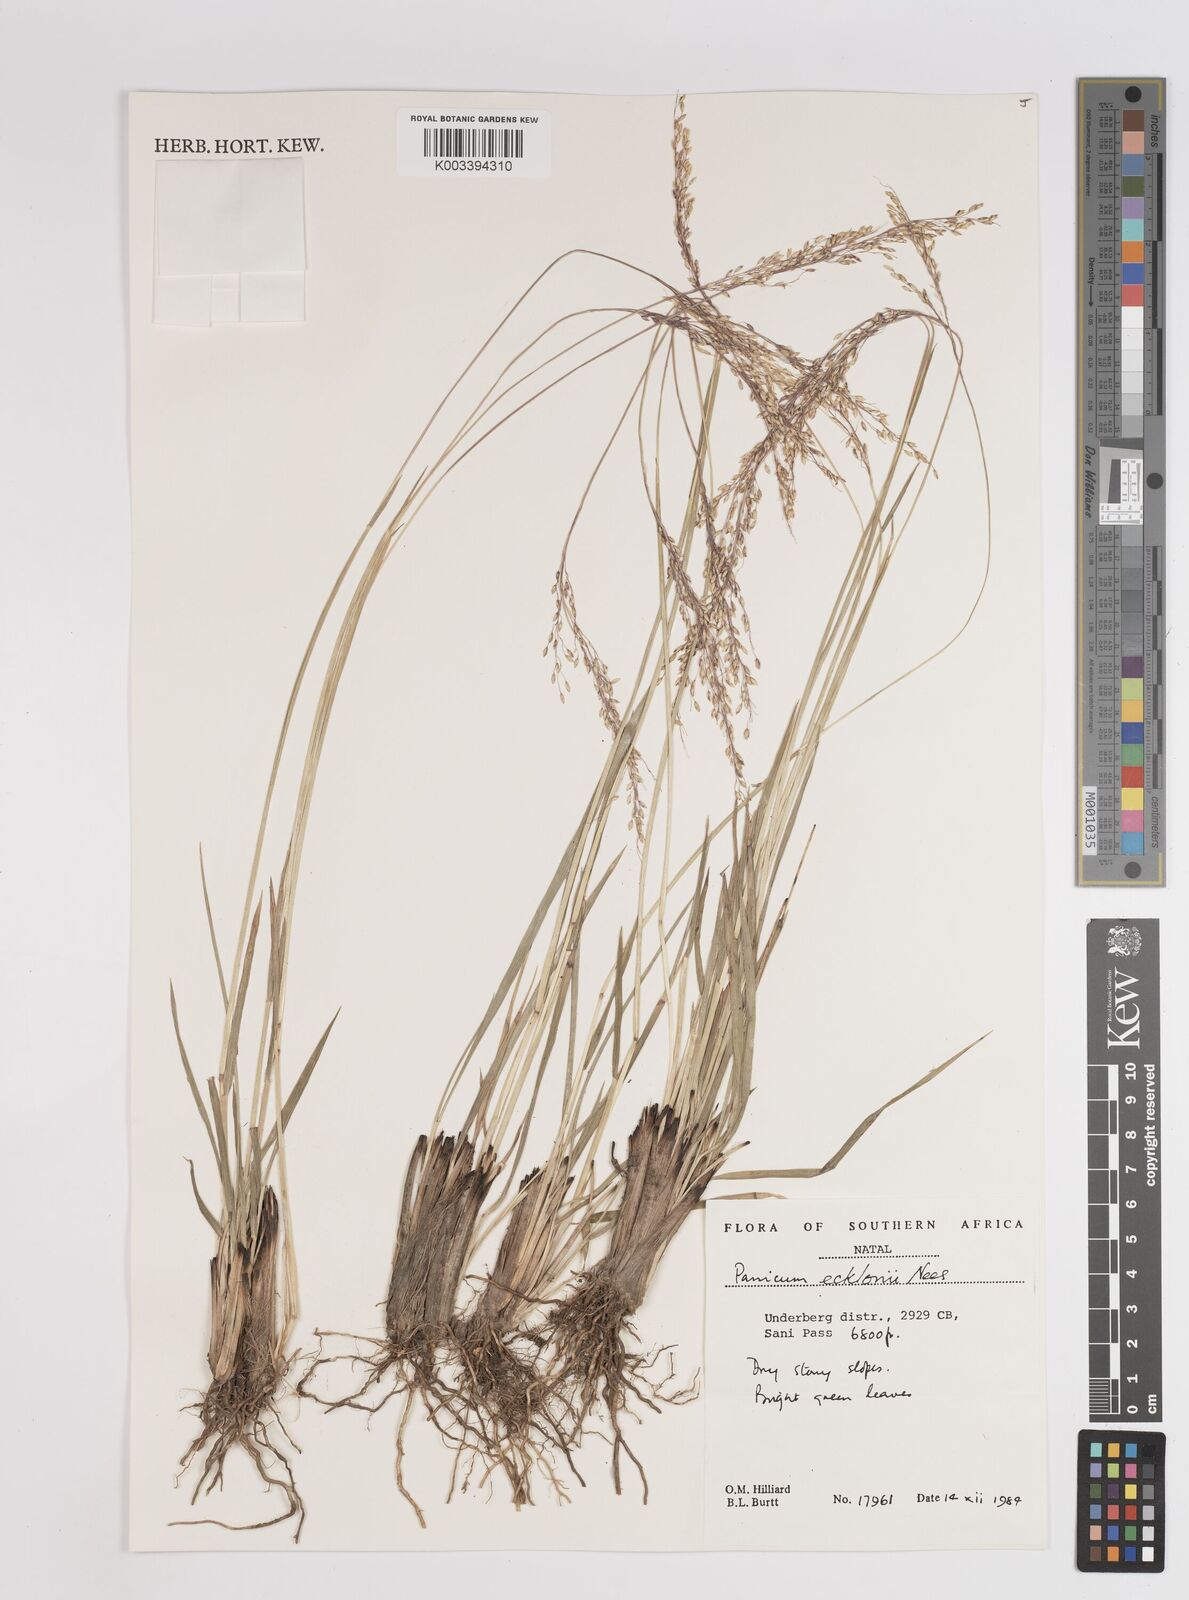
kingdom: Plantae
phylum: Tracheophyta
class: Liliopsida
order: Poales
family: Poaceae
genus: Adenochloa
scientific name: Adenochloa ecklonii
